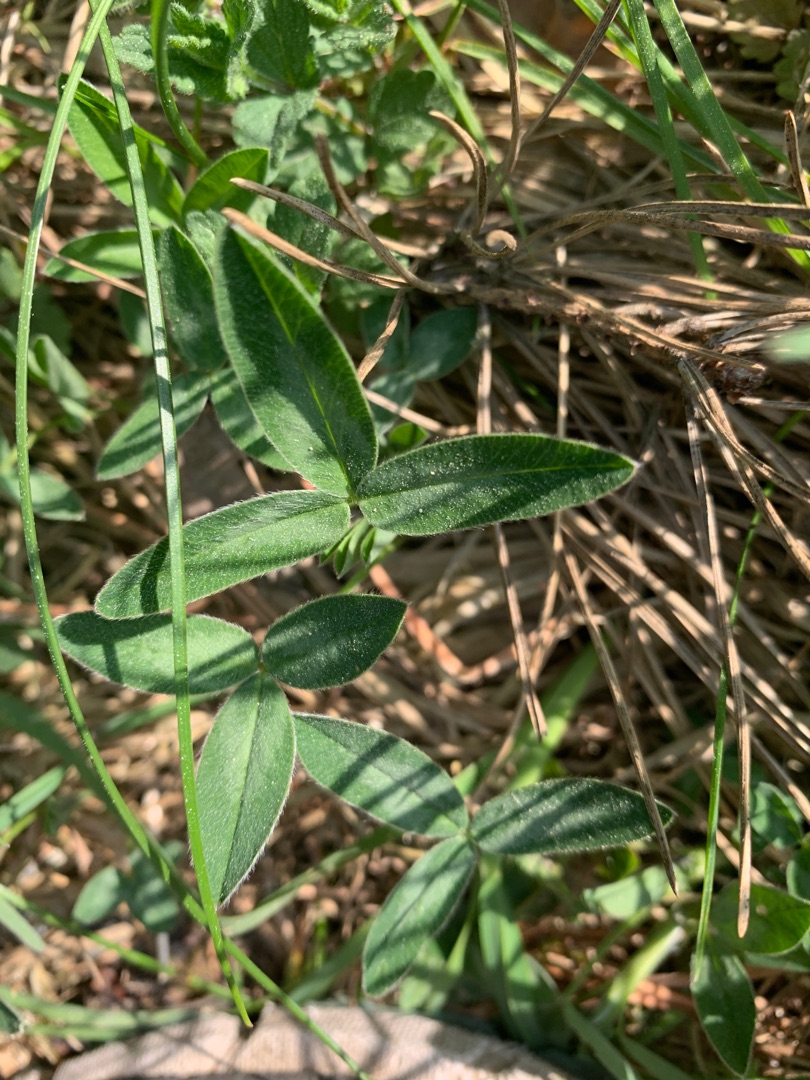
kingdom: Plantae
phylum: Tracheophyta
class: Magnoliopsida
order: Fabales
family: Fabaceae
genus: Trifolium
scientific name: Trifolium medium
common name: Bugtet kløver
